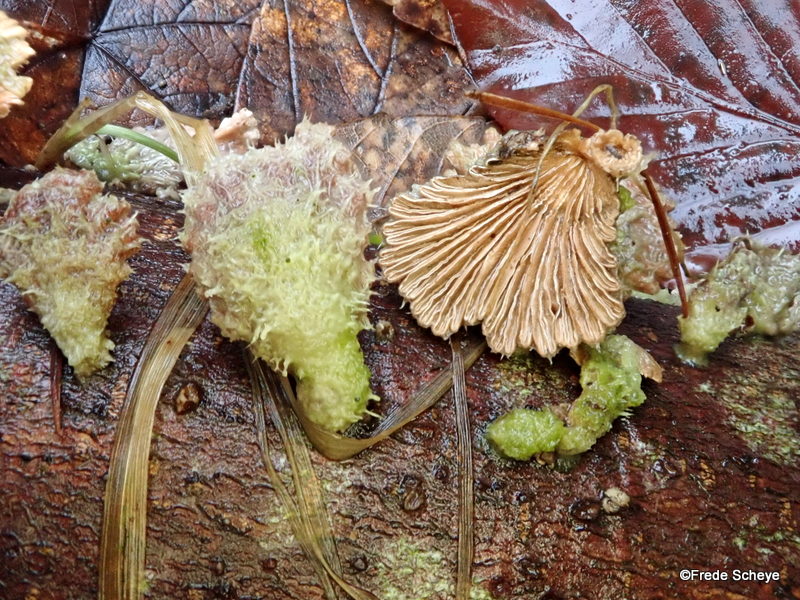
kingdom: Fungi
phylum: Basidiomycota
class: Agaricomycetes
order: Agaricales
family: Schizophyllaceae
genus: Schizophyllum
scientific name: Schizophyllum commune
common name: kløvblad
